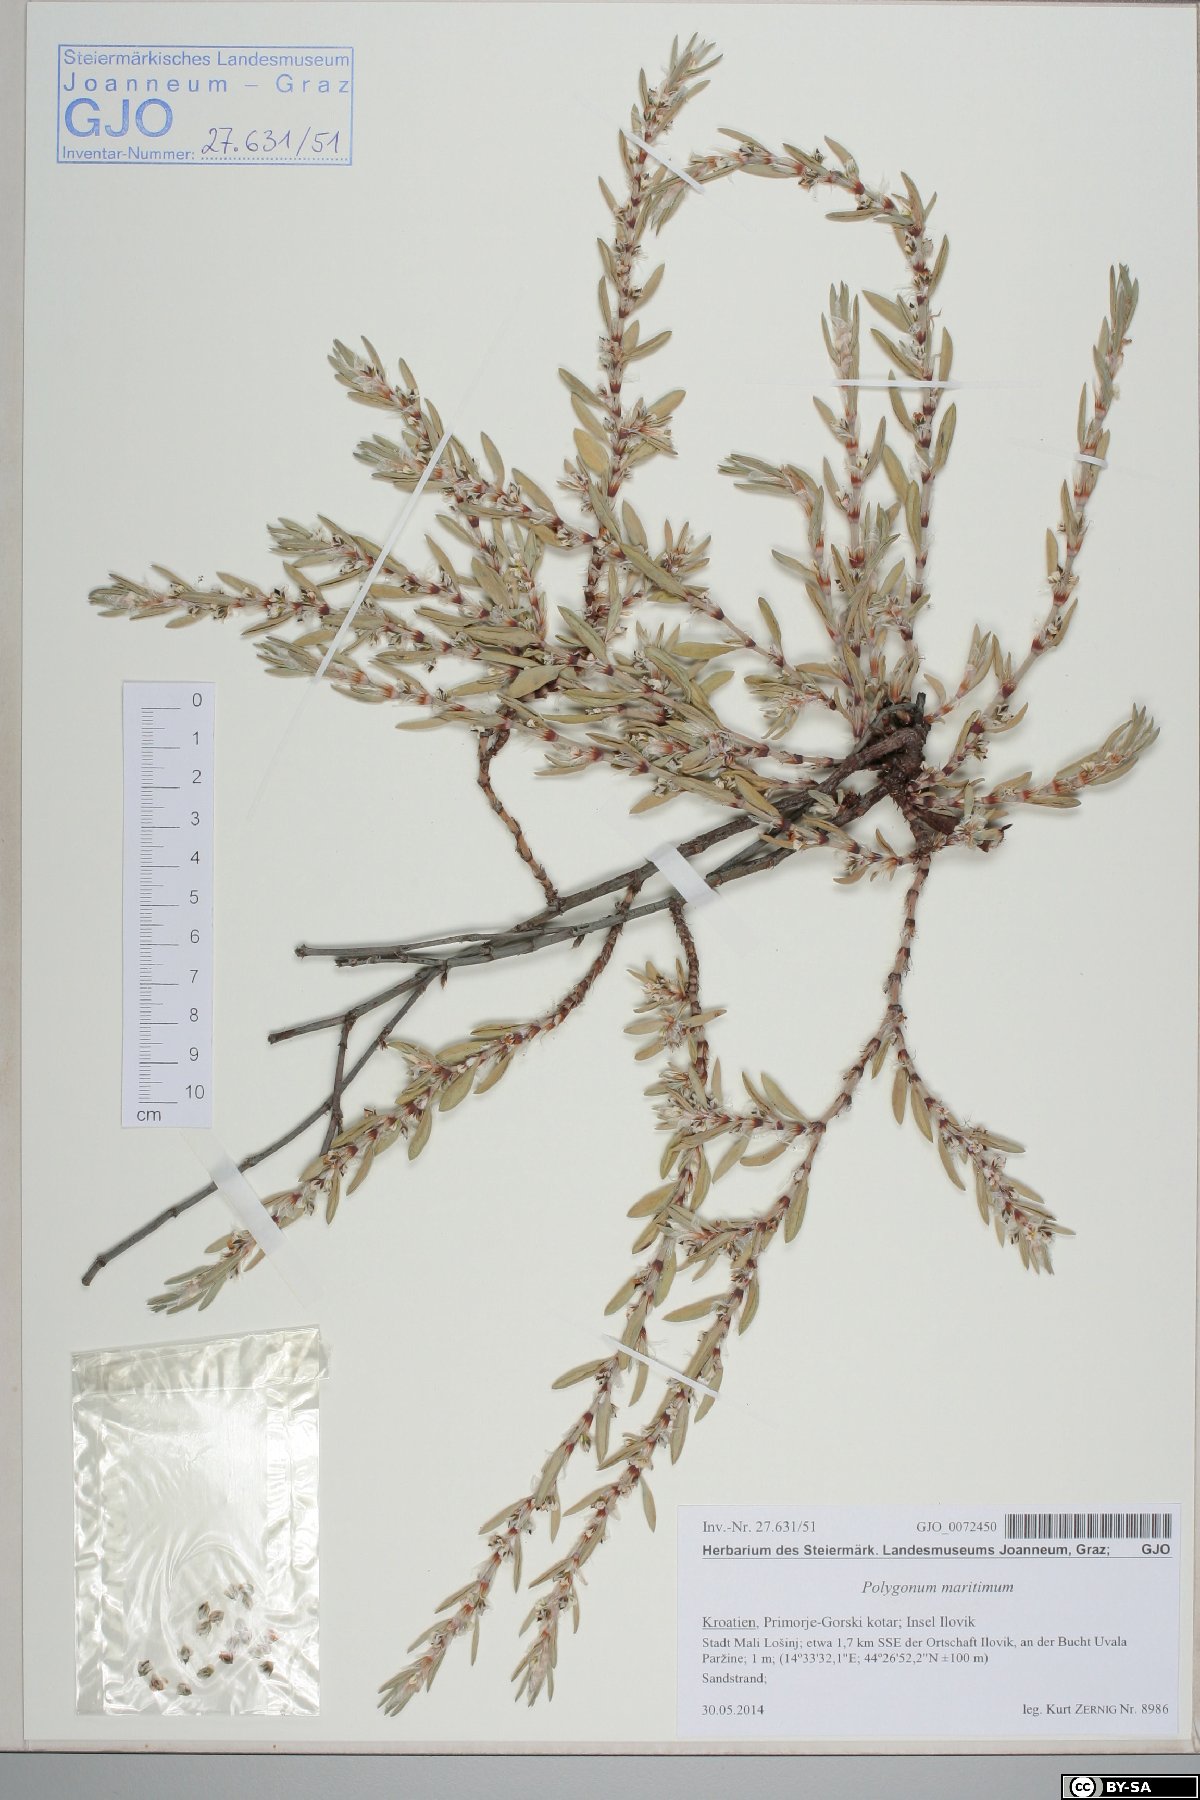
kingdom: Plantae
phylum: Tracheophyta
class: Magnoliopsida
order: Caryophyllales
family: Polygonaceae
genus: Polygonum
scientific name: Polygonum maritimum
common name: Sea knotgrass
